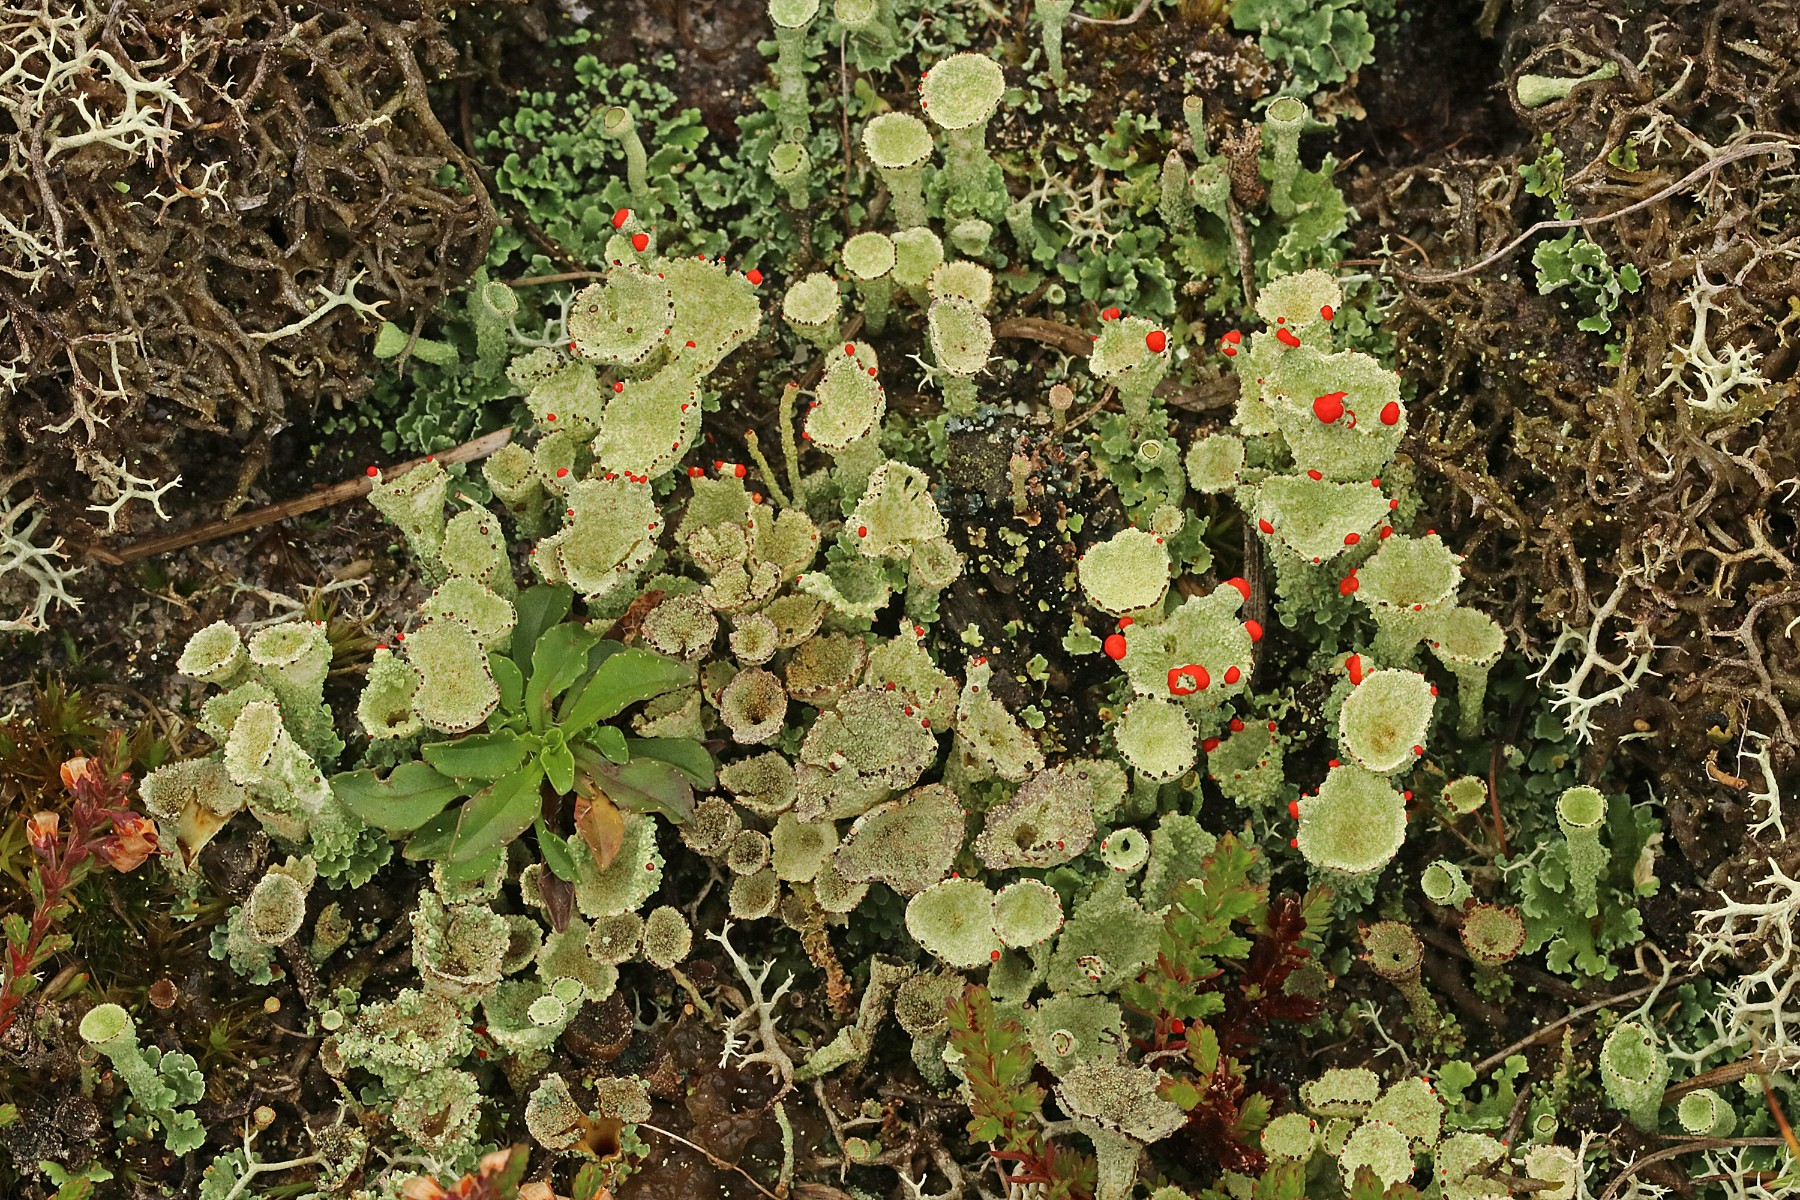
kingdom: Fungi
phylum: Ascomycota
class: Lecanoromycetes
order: Lecanorales
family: Cladoniaceae
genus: Cladonia
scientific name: Cladonia diversa
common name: rød bægerlav
